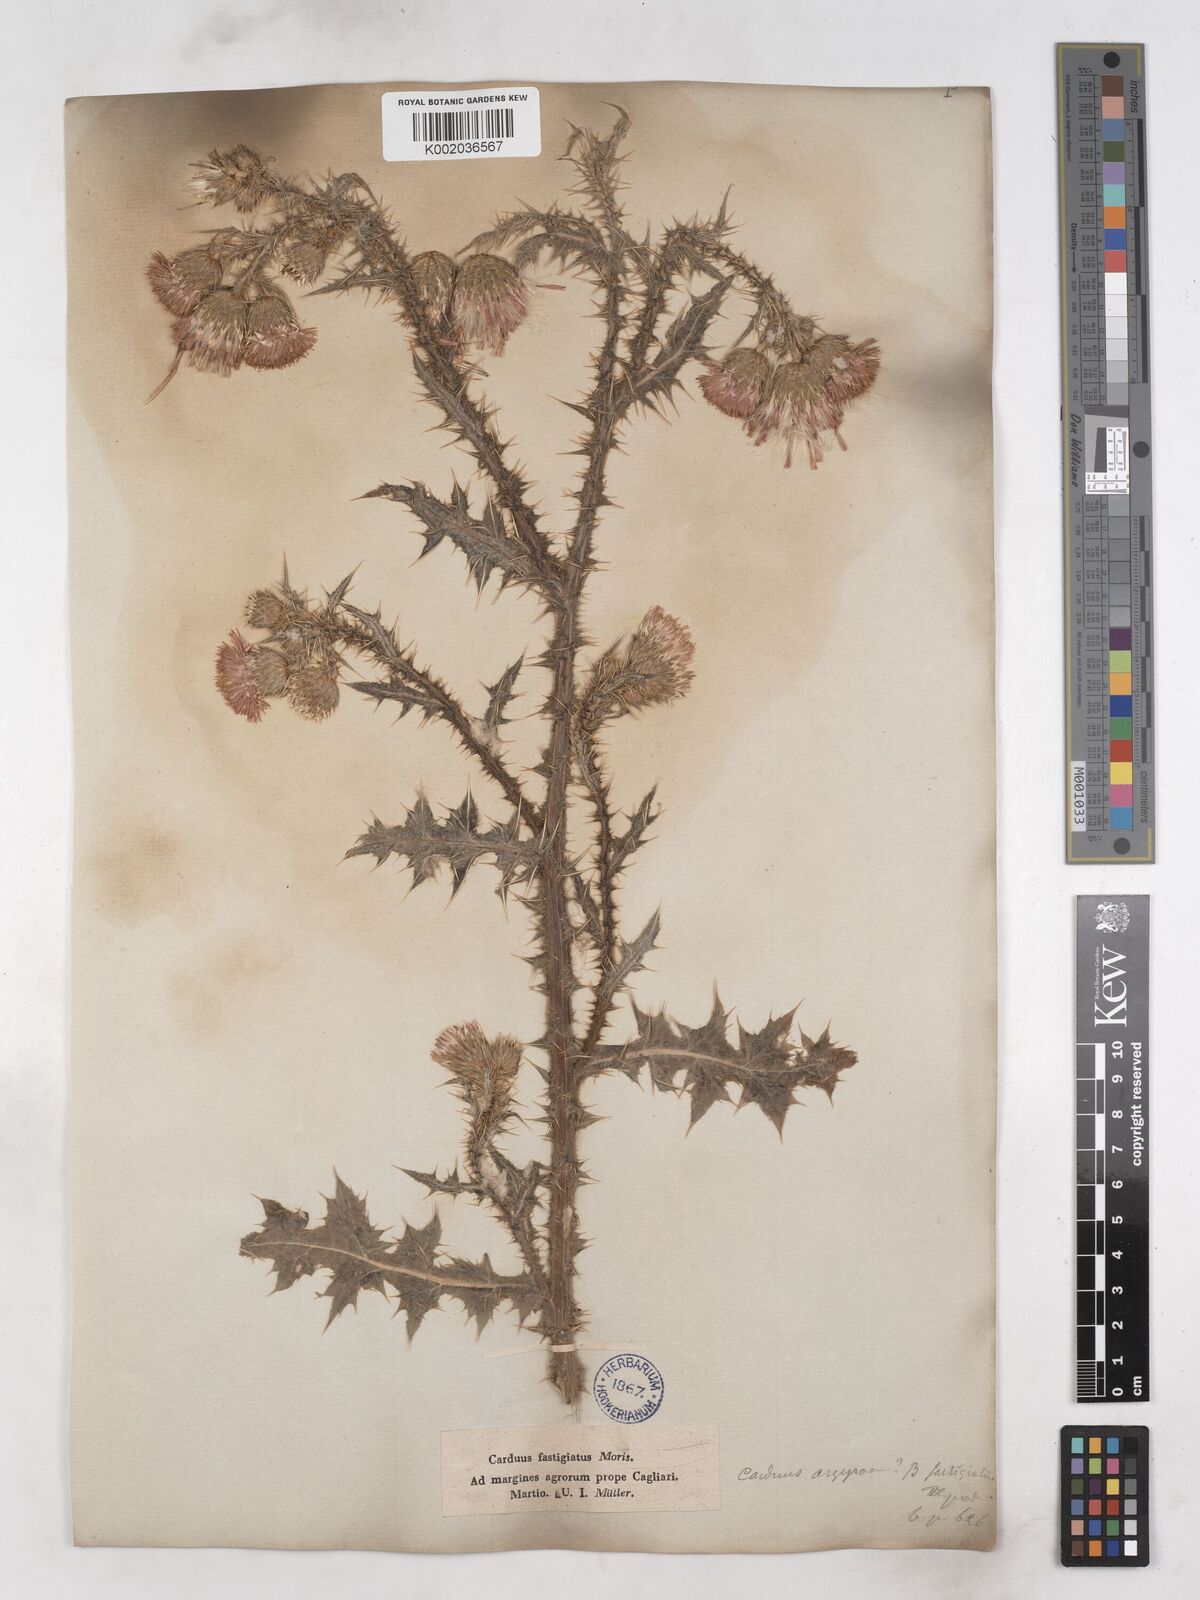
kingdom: Plantae
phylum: Tracheophyta
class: Magnoliopsida
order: Asterales
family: Asteraceae
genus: Carduus
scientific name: Carduus argyroa
